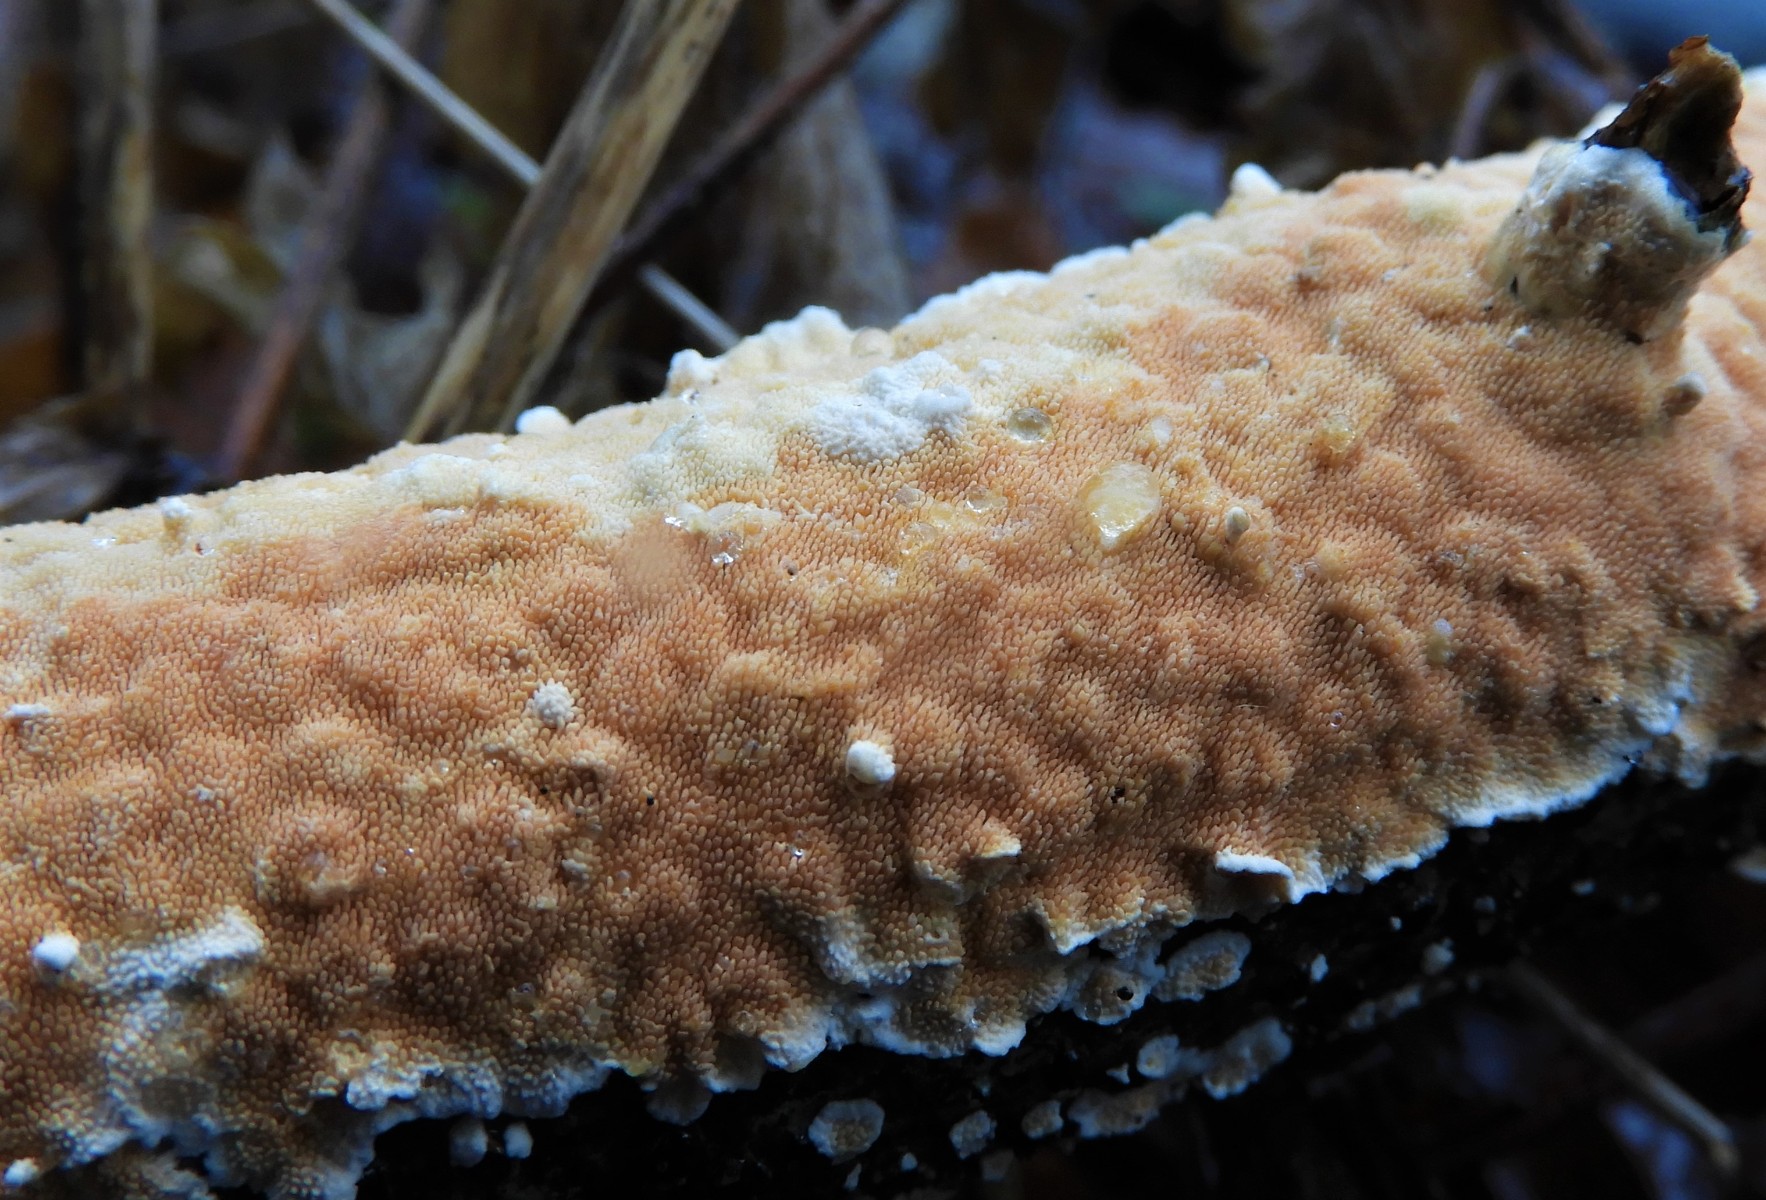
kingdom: Fungi
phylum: Basidiomycota
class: Agaricomycetes
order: Polyporales
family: Steccherinaceae
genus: Steccherinum
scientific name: Steccherinum ochraceum
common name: almindelig skønpig
